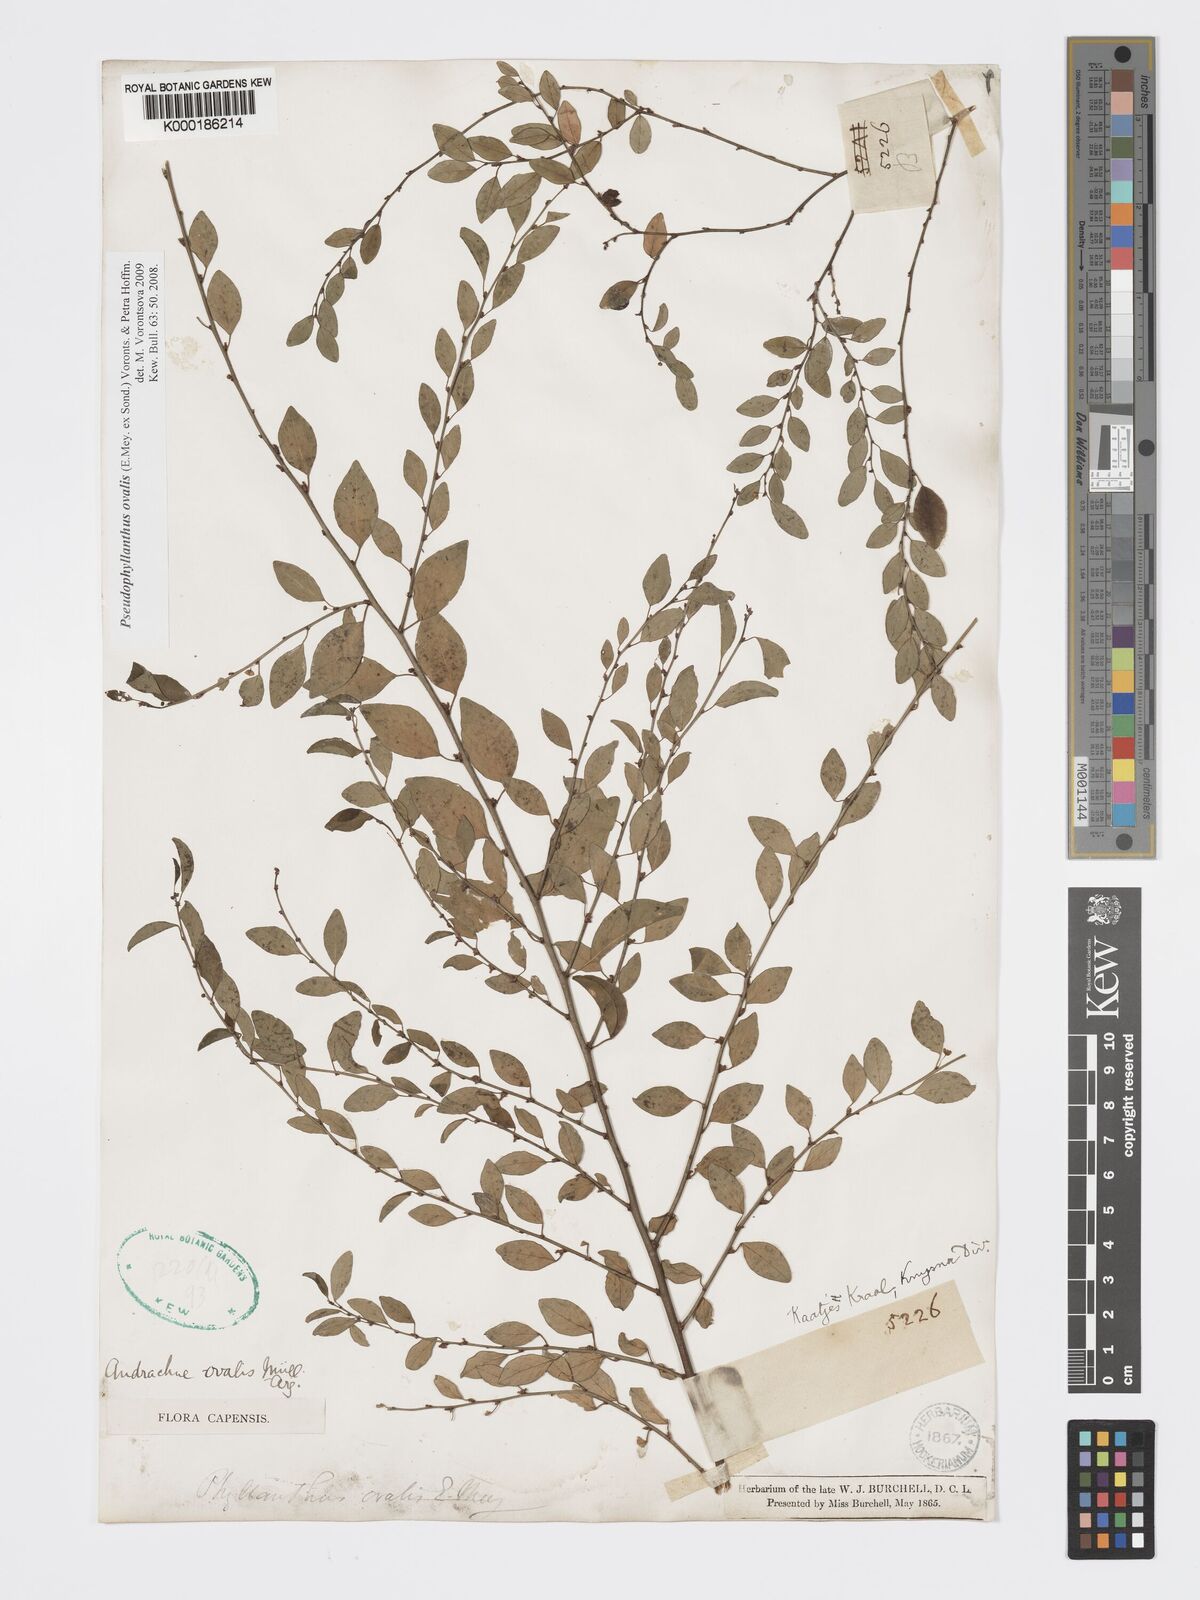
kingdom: Plantae
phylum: Tracheophyta
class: Magnoliopsida
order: Malpighiales
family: Phyllanthaceae
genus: Pseudophyllanthus
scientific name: Pseudophyllanthus ovalis
